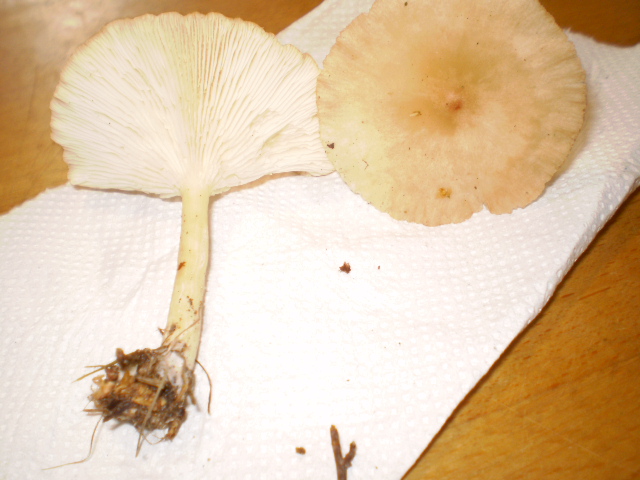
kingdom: Fungi
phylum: Basidiomycota
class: Agaricomycetes
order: Agaricales
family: Tricholomataceae
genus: Infundibulicybe
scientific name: Infundibulicybe gibba
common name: almindelig tragthat
